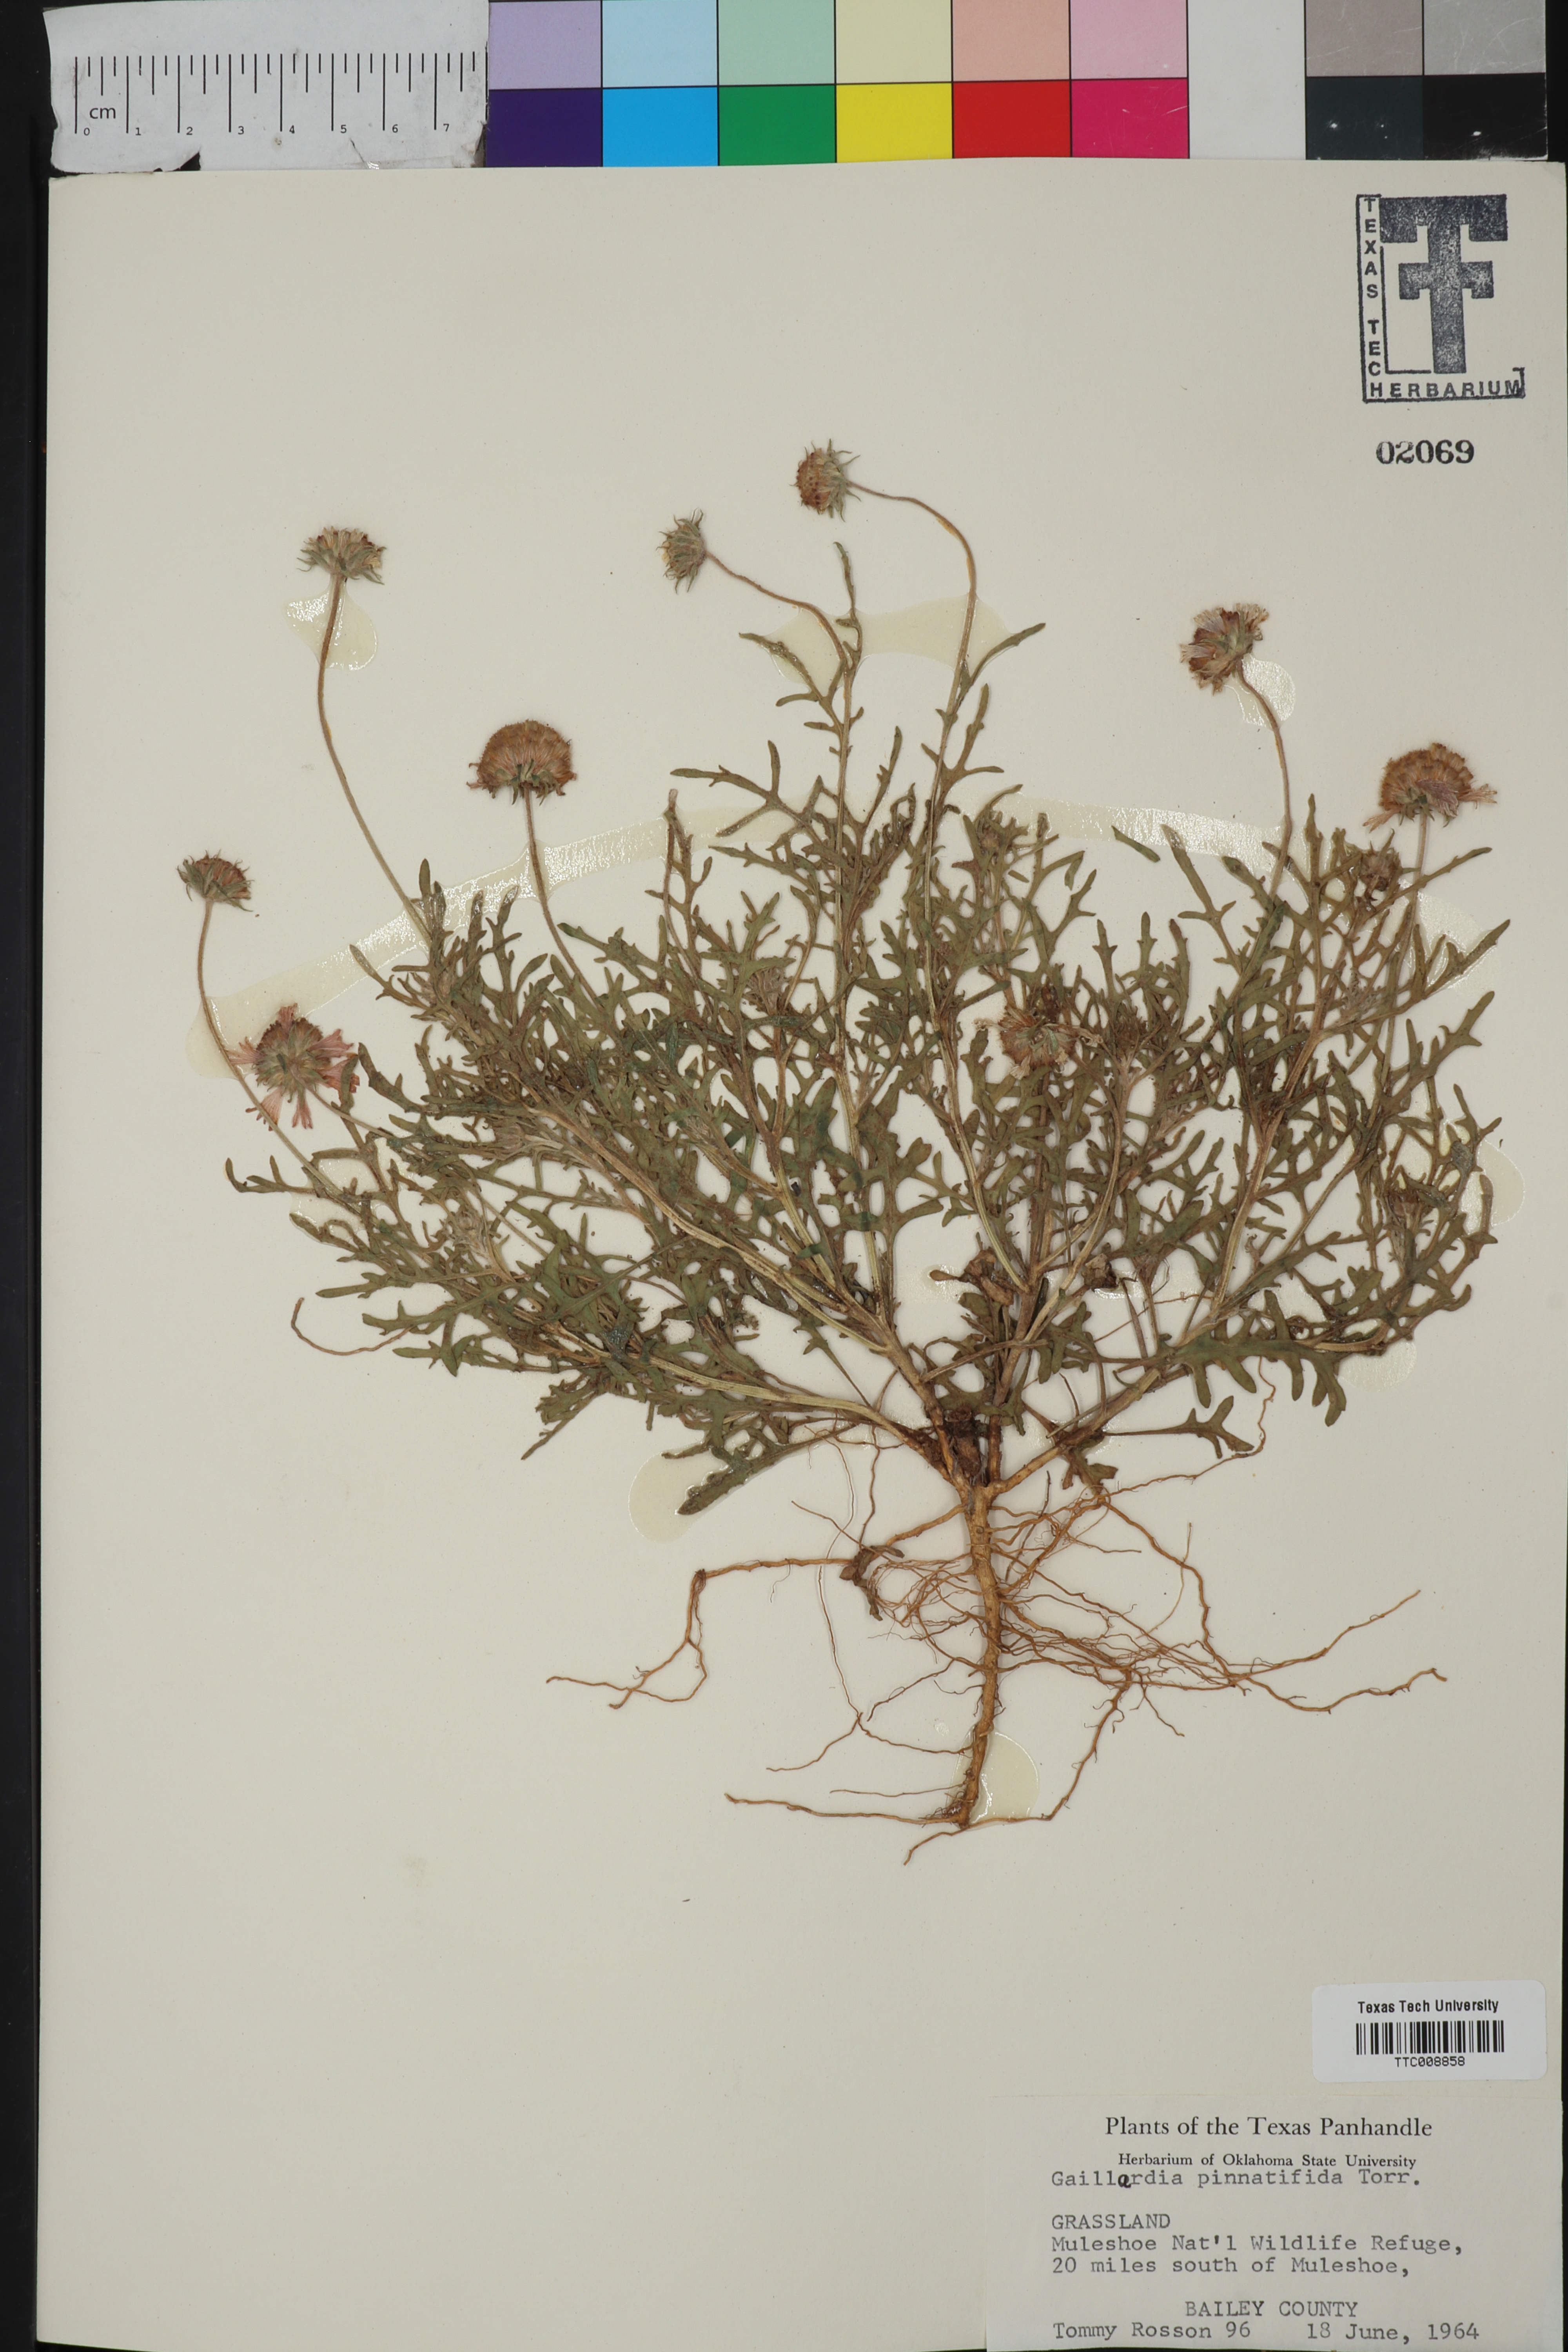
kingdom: Plantae
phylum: Tracheophyta
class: Magnoliopsida
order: Asterales
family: Asteraceae
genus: Gaillardia
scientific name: Gaillardia pinnatifida
